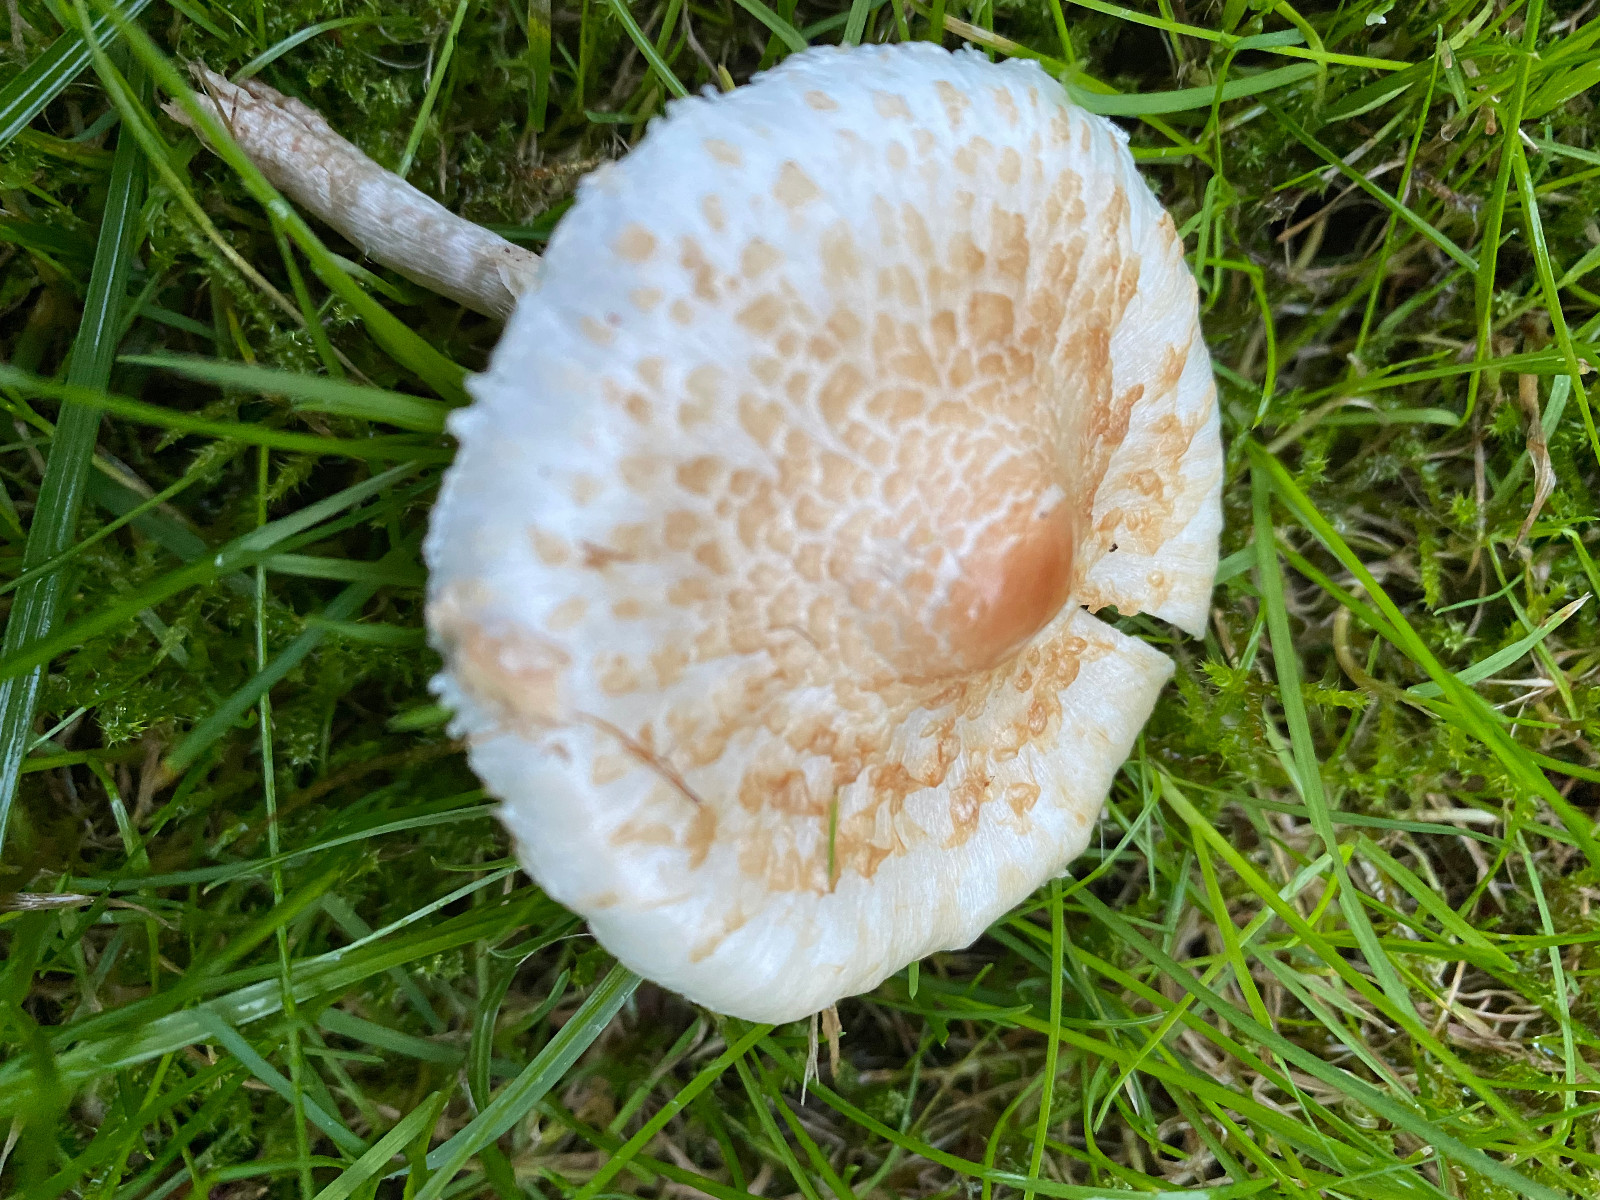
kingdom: Fungi
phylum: Basidiomycota
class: Agaricomycetes
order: Agaricales
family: Agaricaceae
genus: Lepiota
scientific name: Lepiota cristata
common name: stinkende parasolhat
